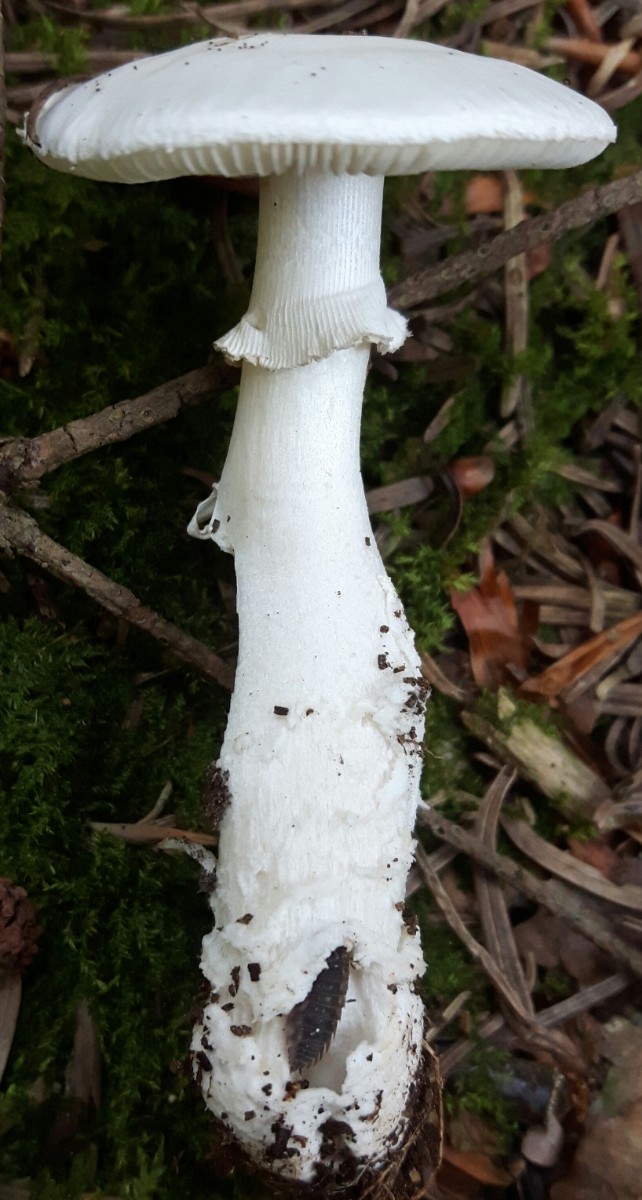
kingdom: Fungi
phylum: Basidiomycota
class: Agaricomycetes
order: Agaricales
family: Amanitaceae
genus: Amanita
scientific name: Amanita excelsa
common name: European false blusher
